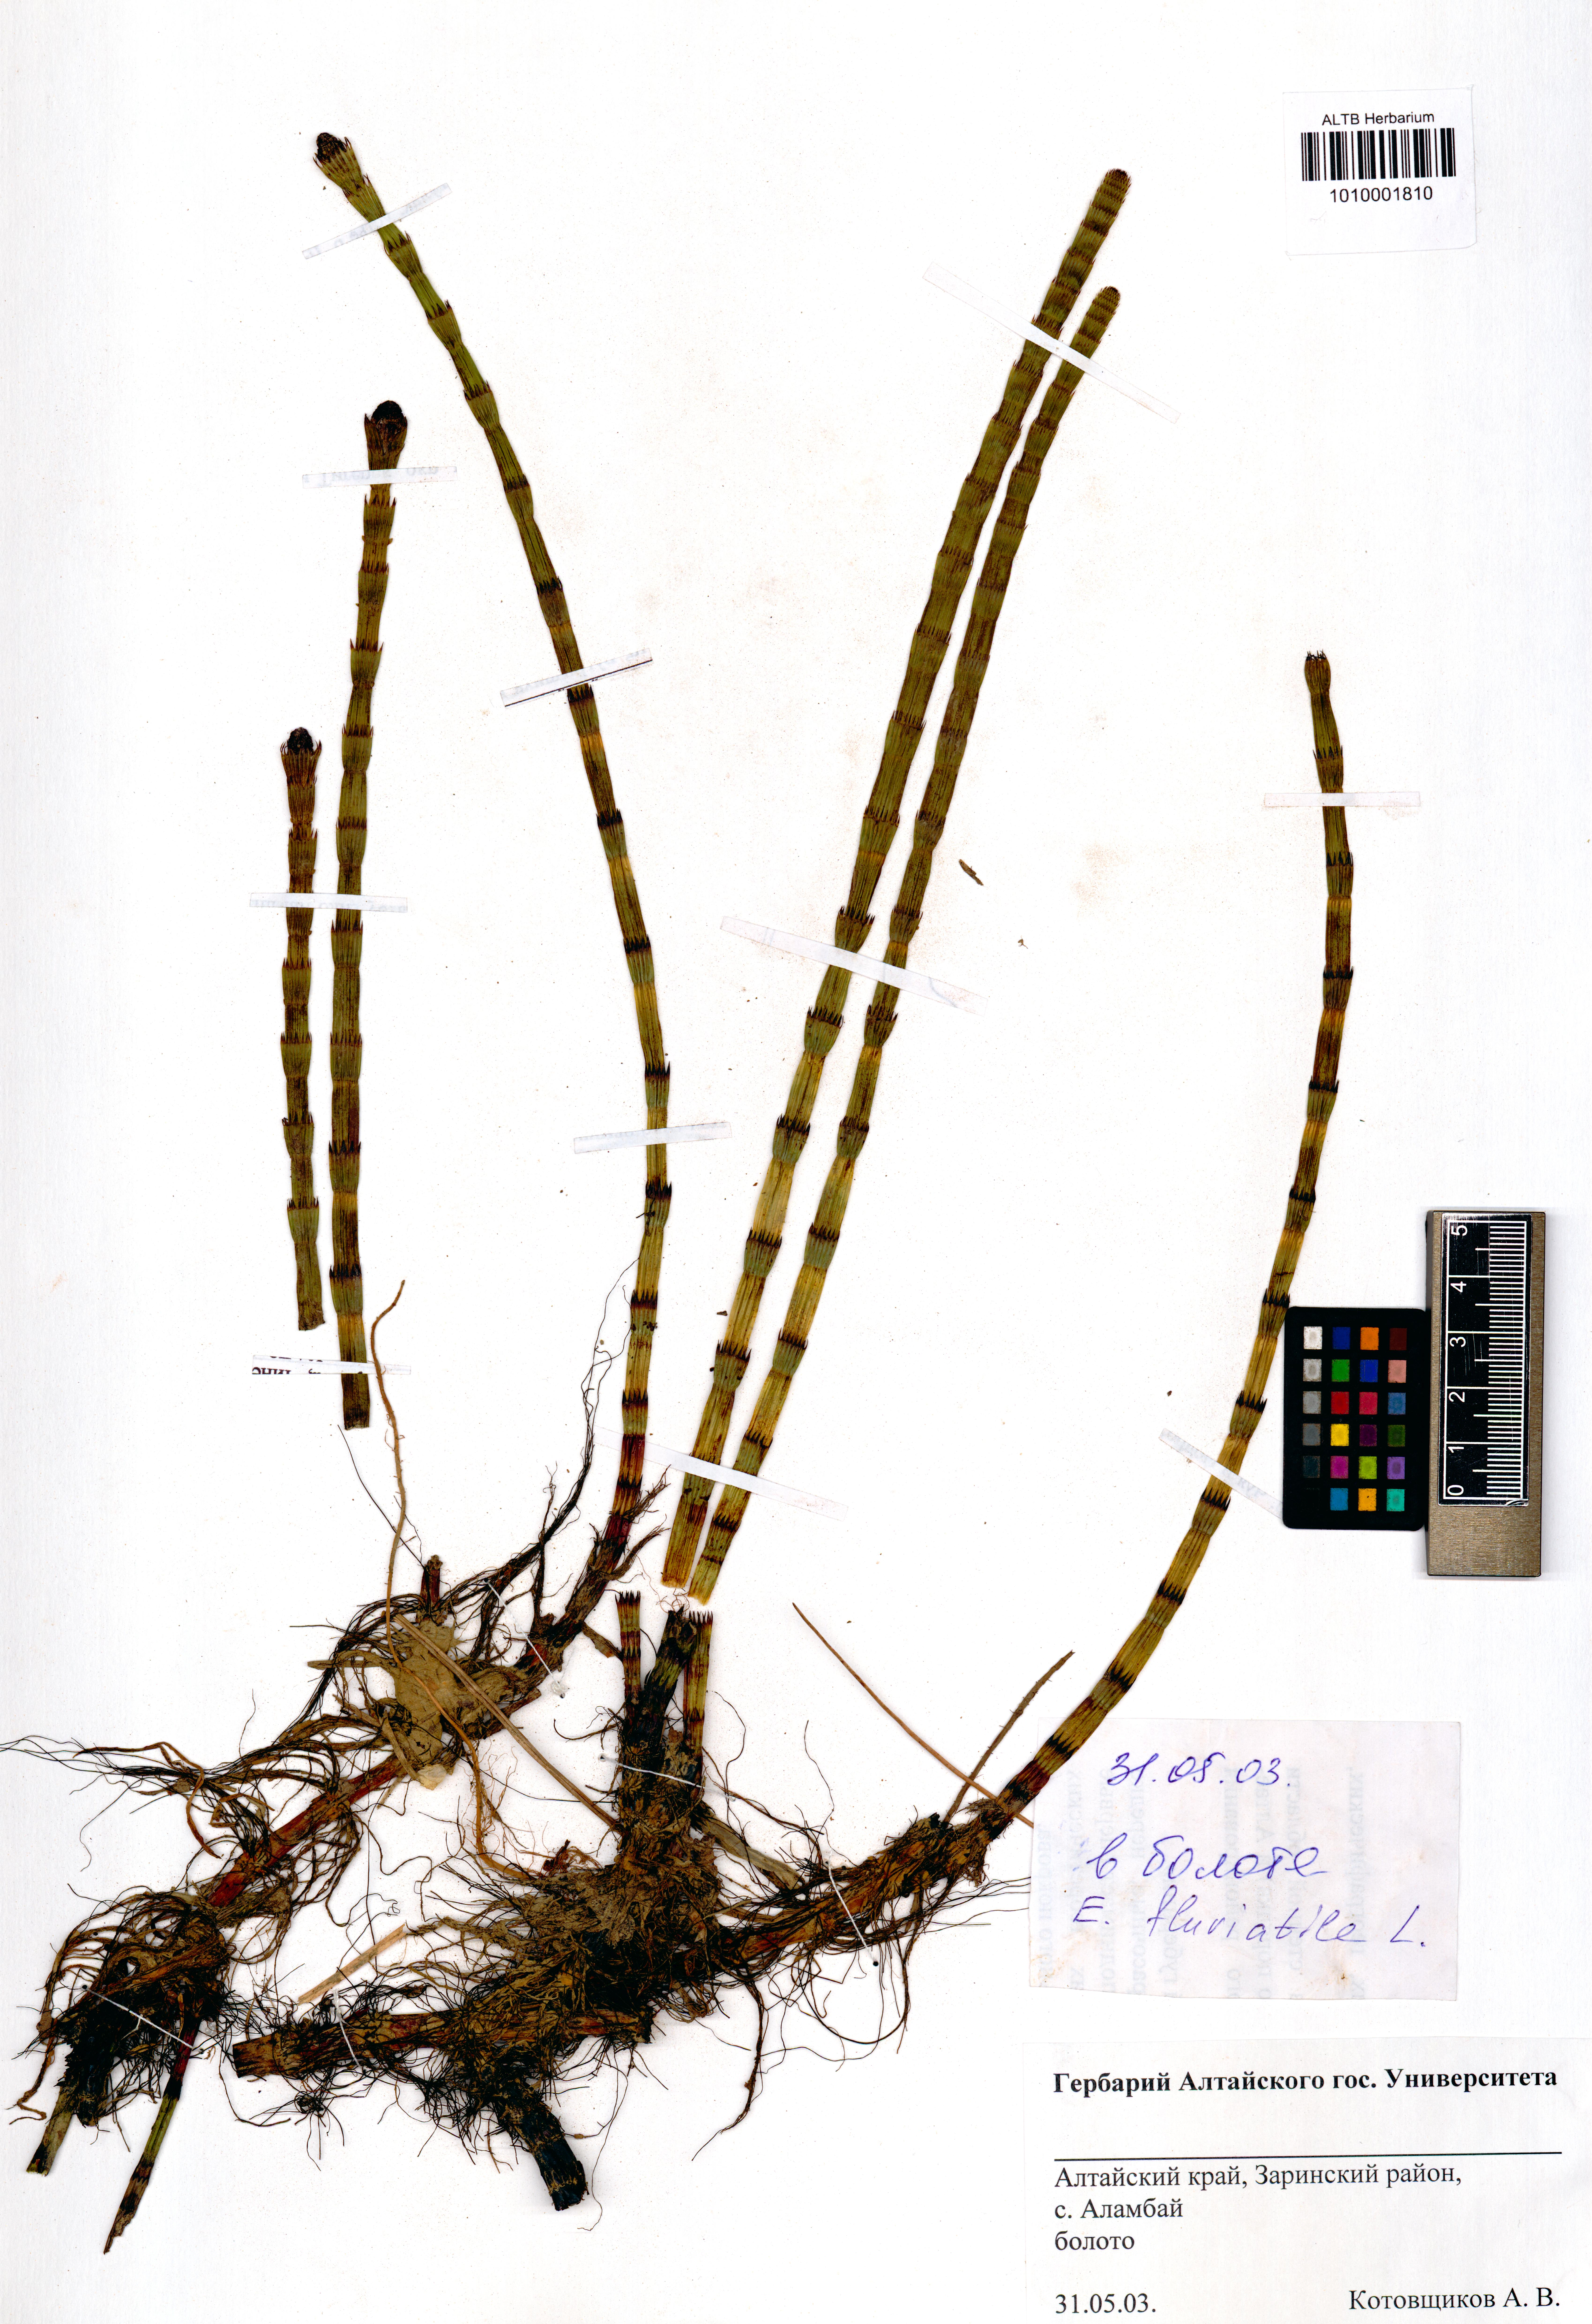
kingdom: Plantae
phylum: Tracheophyta
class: Polypodiopsida
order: Equisetales
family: Equisetaceae
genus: Equisetum
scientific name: Equisetum fluviatile
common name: Water horsetail
